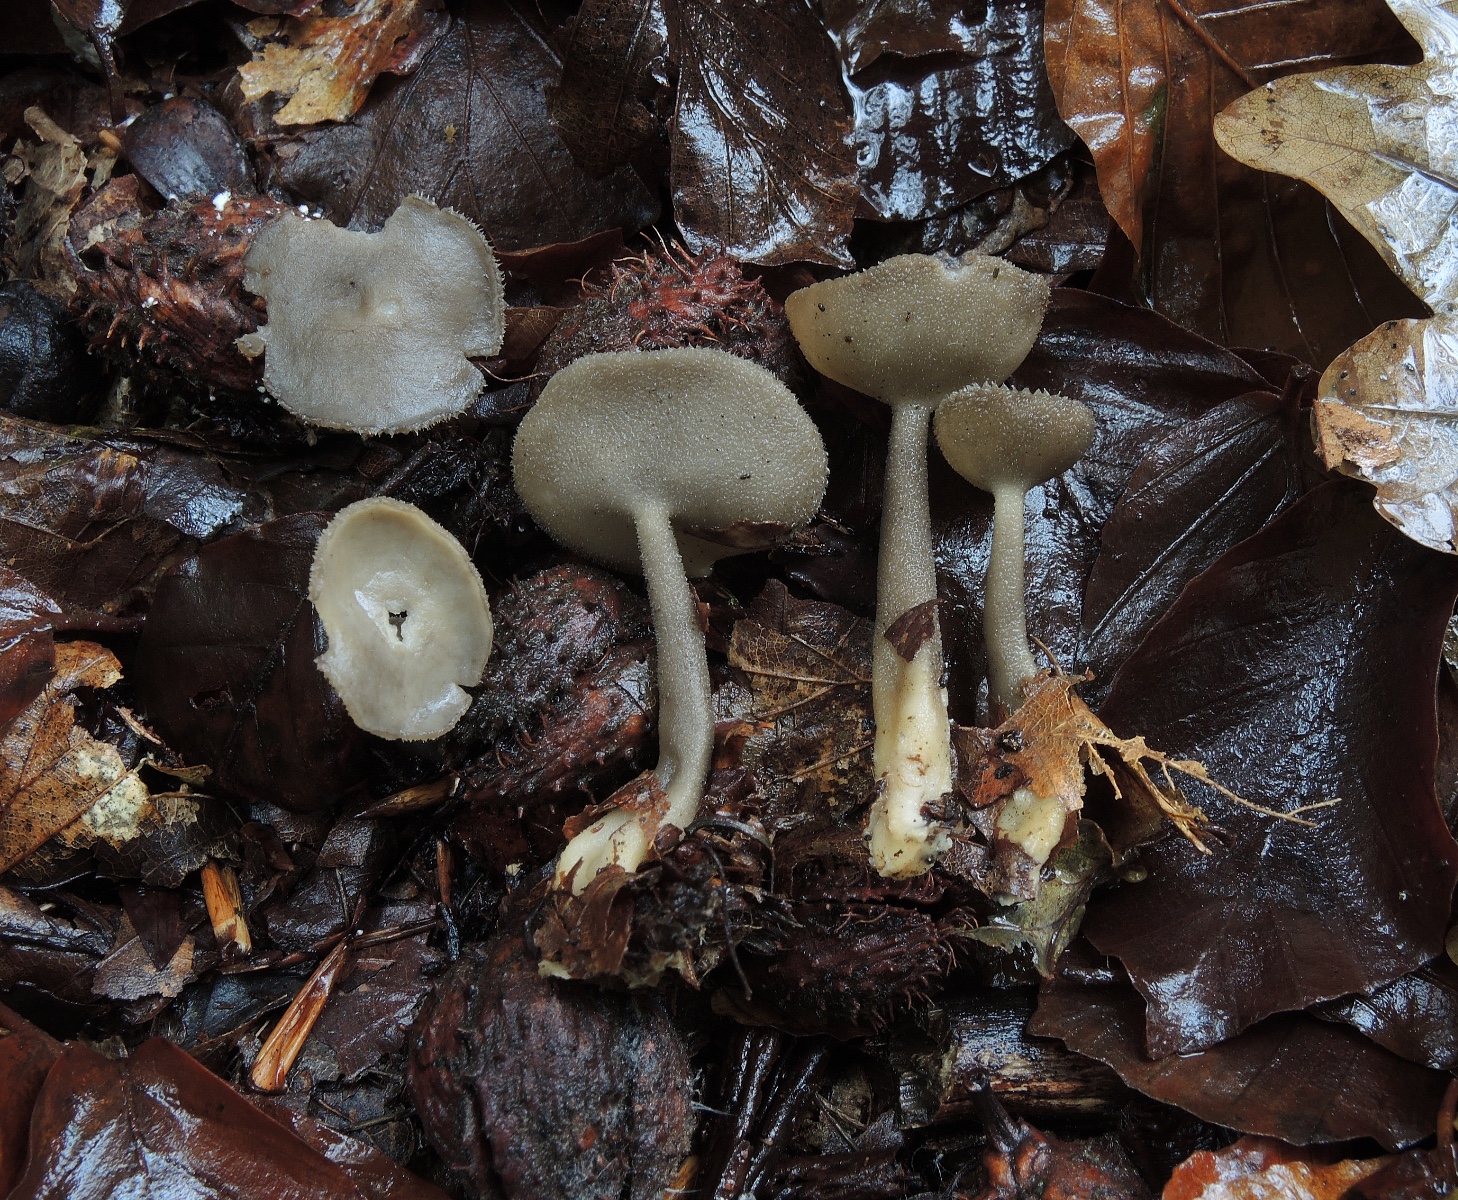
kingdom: Fungi
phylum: Ascomycota
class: Pezizomycetes
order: Pezizales
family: Helvellaceae
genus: Helvella
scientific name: Helvella macropus
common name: højstokket foldhat
